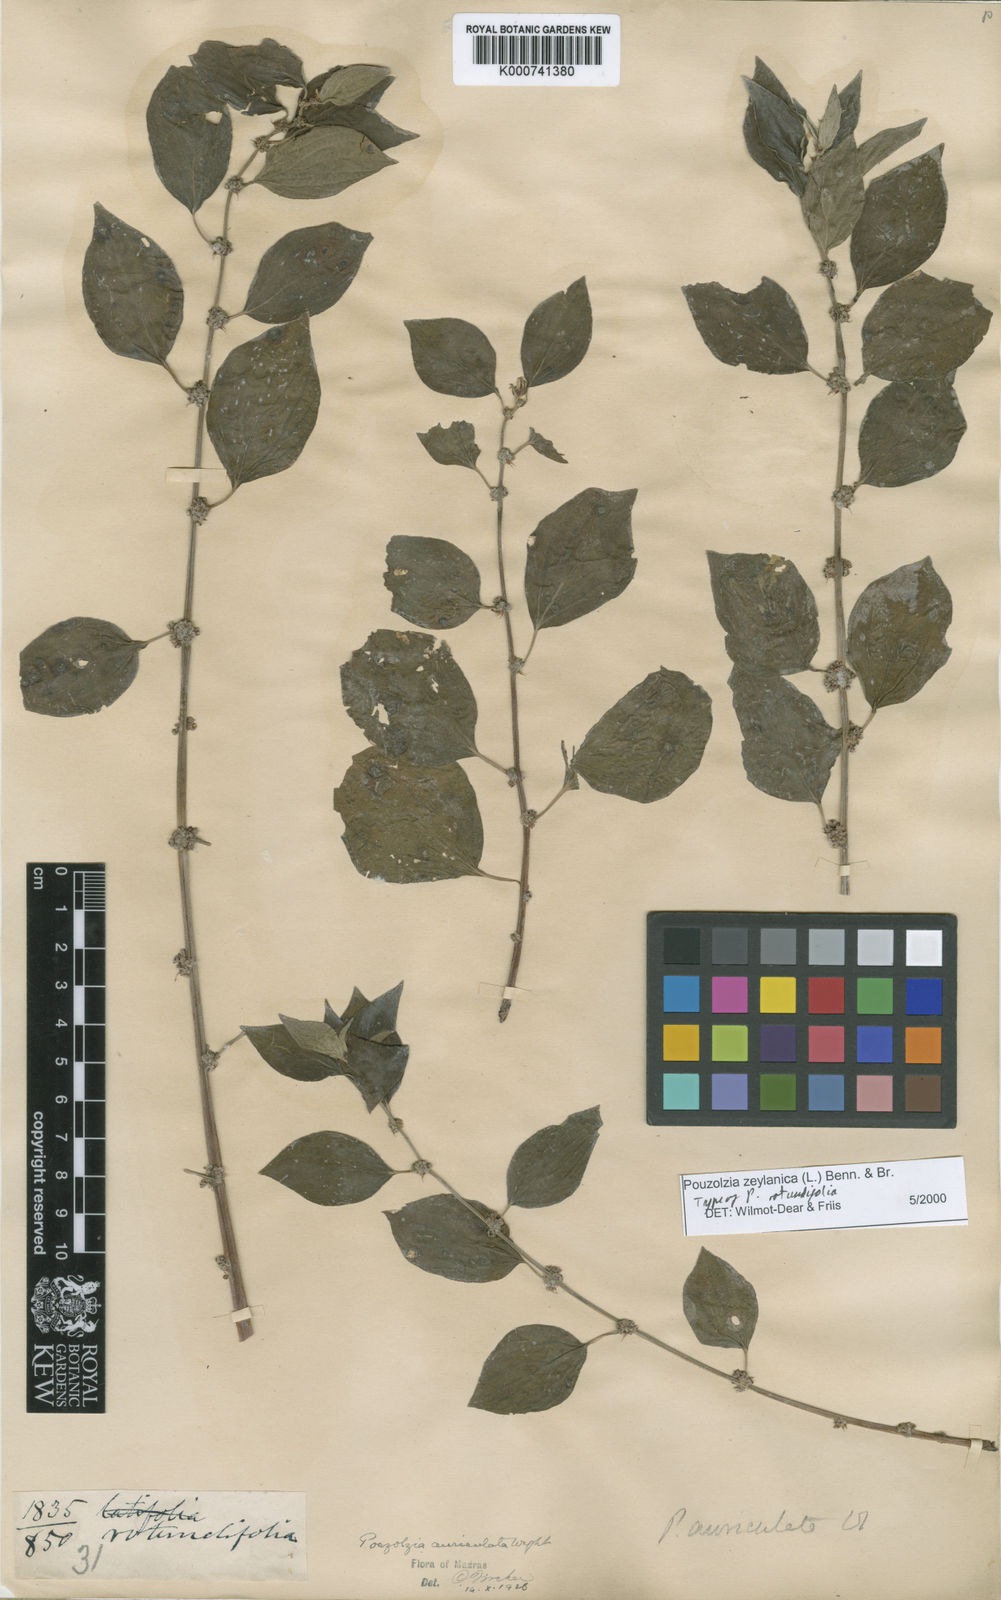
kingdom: Plantae
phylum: Tracheophyta
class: Magnoliopsida
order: Rosales
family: Urticaceae
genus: Pouzolzia
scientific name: Pouzolzia zeylanica
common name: Graceful pouzolzsbush
